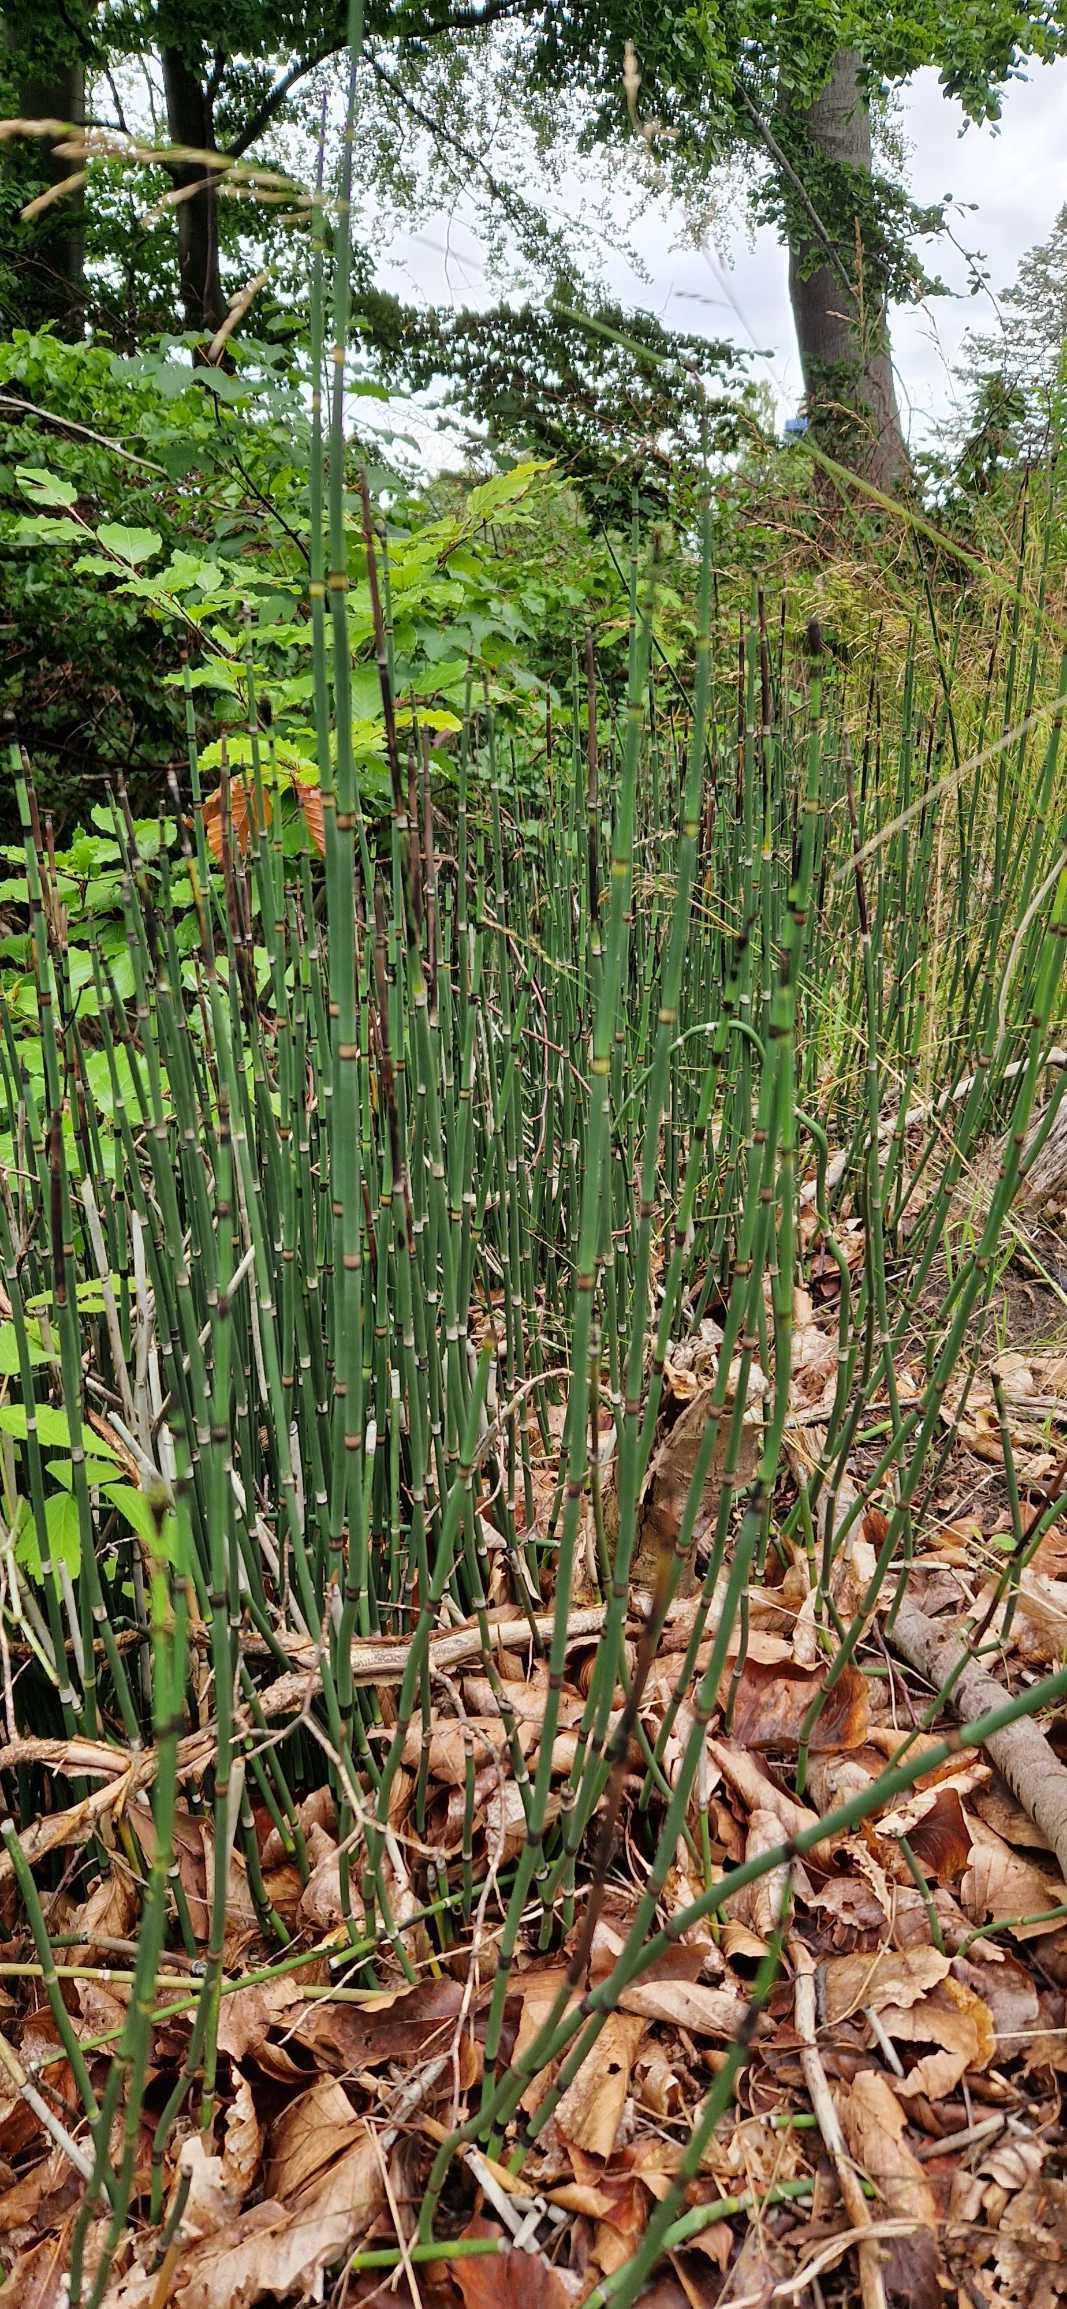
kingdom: Plantae
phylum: Tracheophyta
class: Polypodiopsida
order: Equisetales
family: Equisetaceae
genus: Equisetum
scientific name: Equisetum hyemale
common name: Skavgræs
